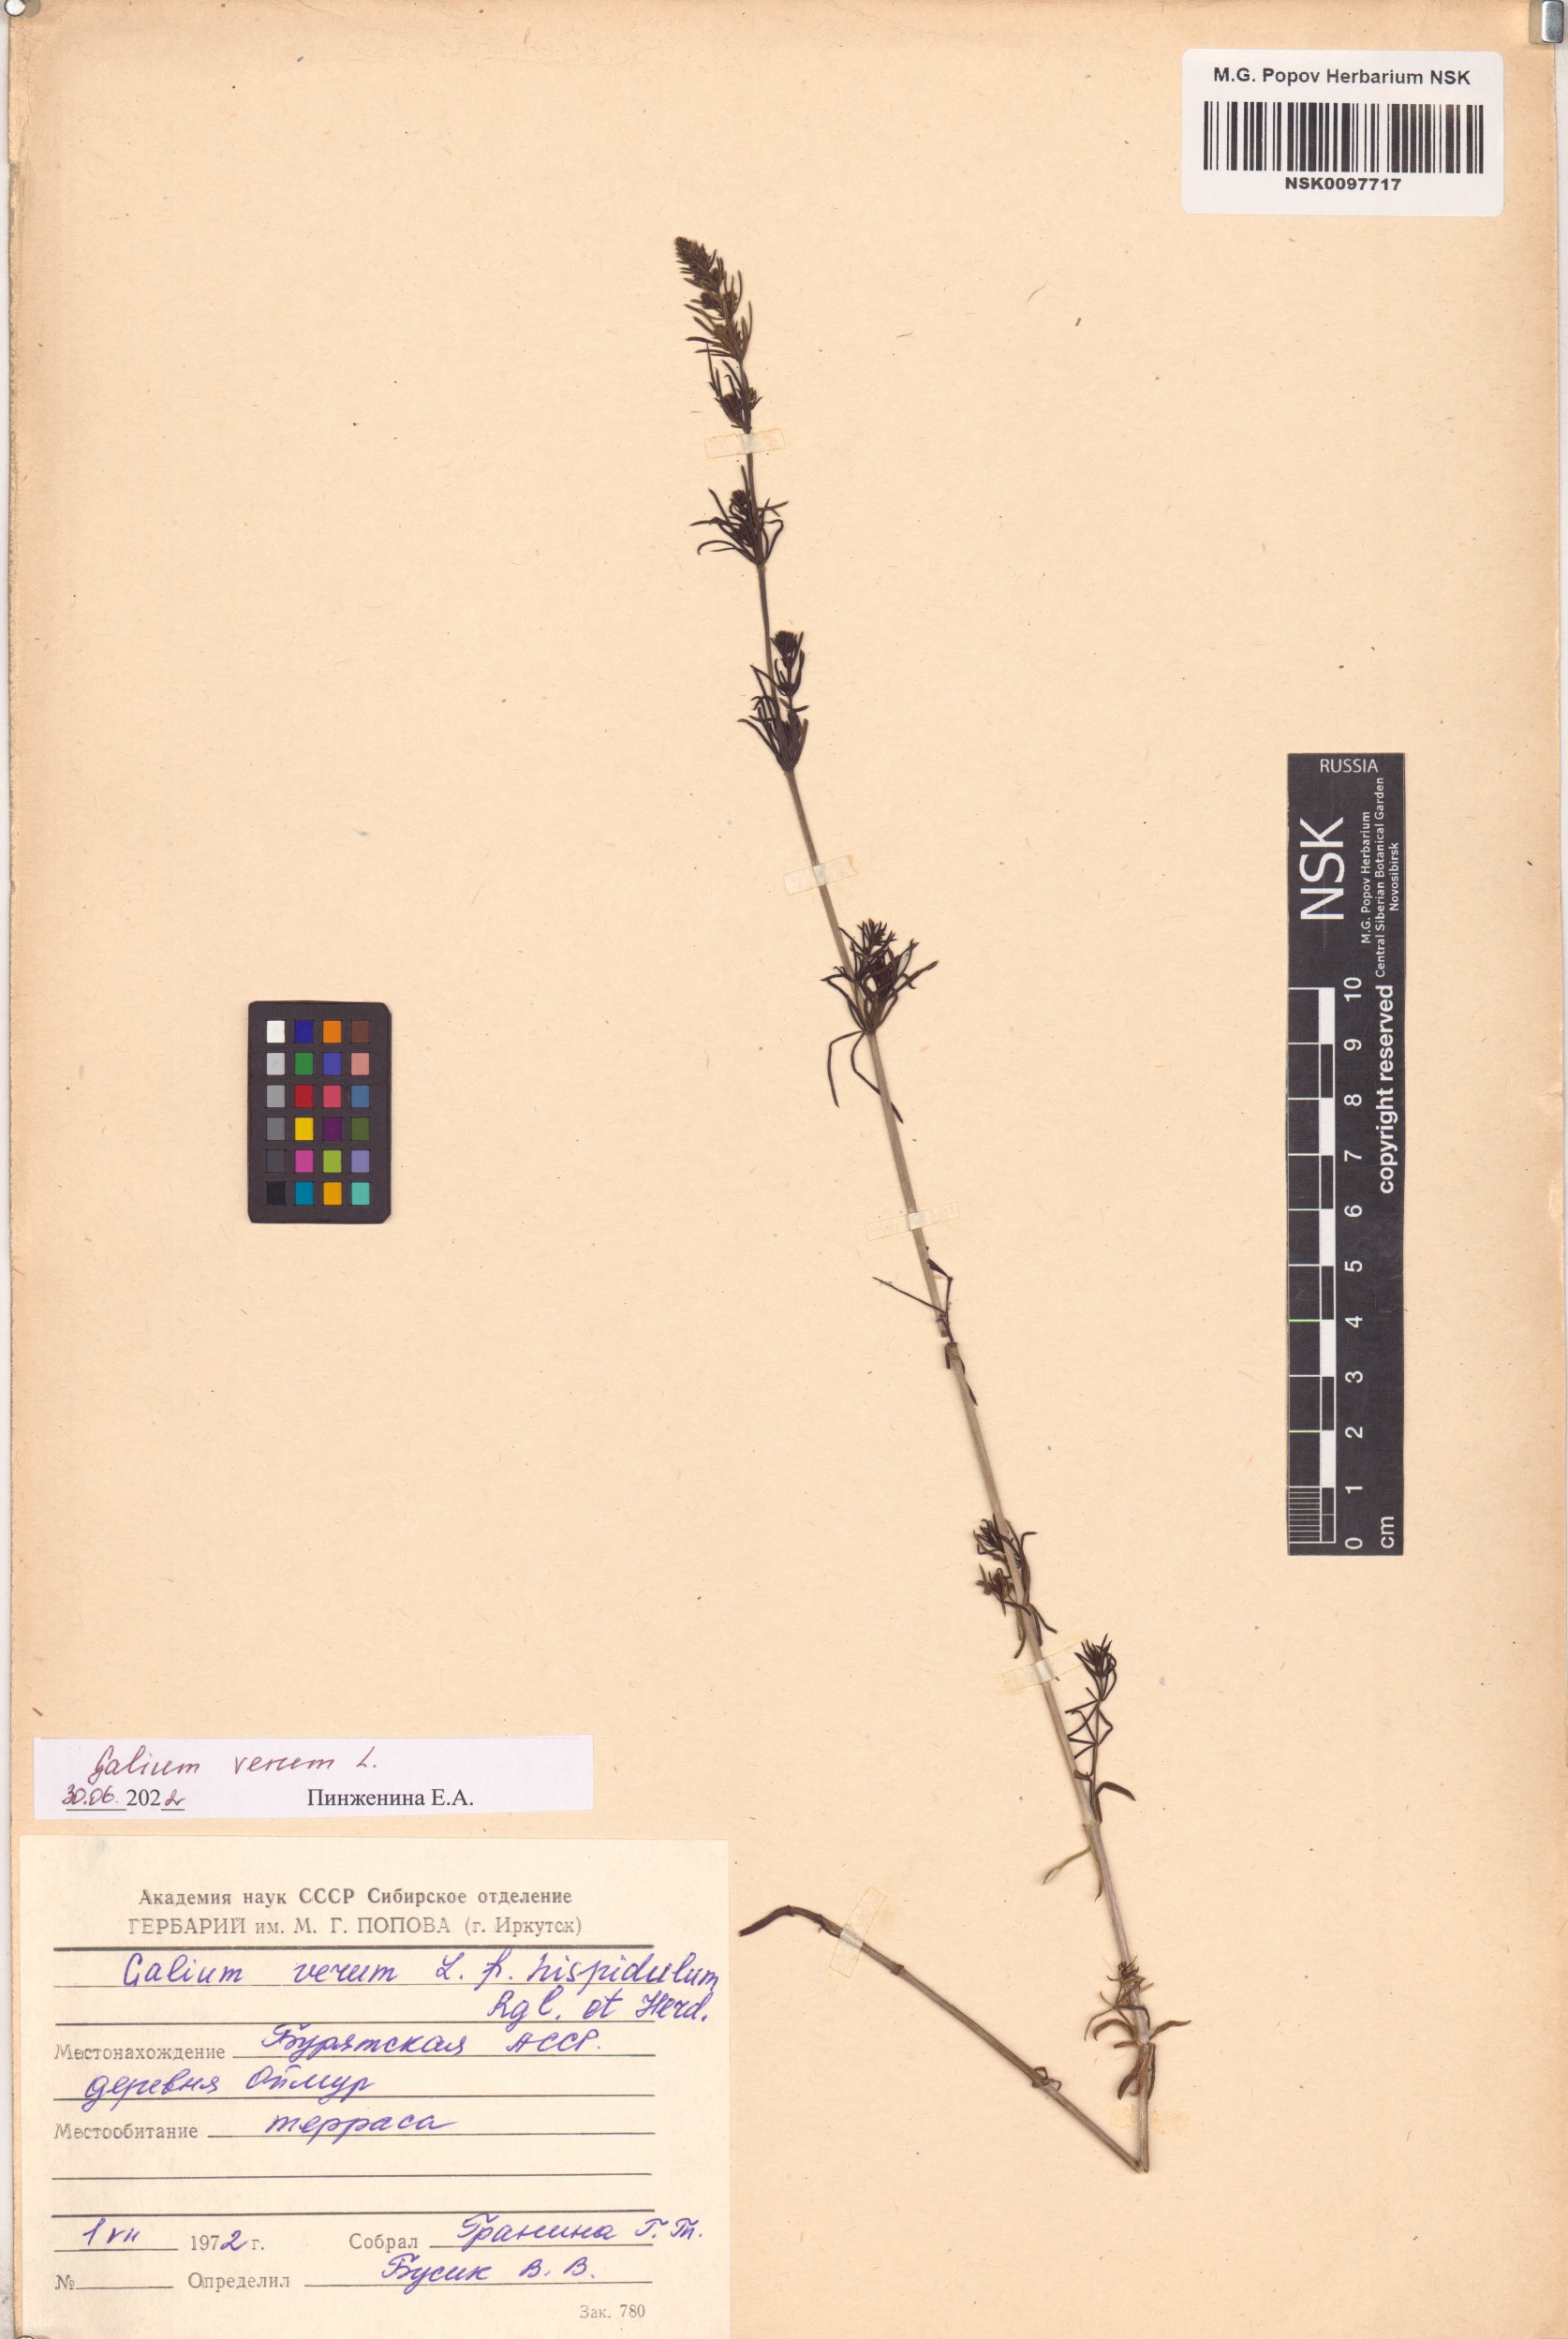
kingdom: Plantae
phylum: Tracheophyta
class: Magnoliopsida
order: Gentianales
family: Rubiaceae
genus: Galium
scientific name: Galium verum
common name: Lady's bedstraw
